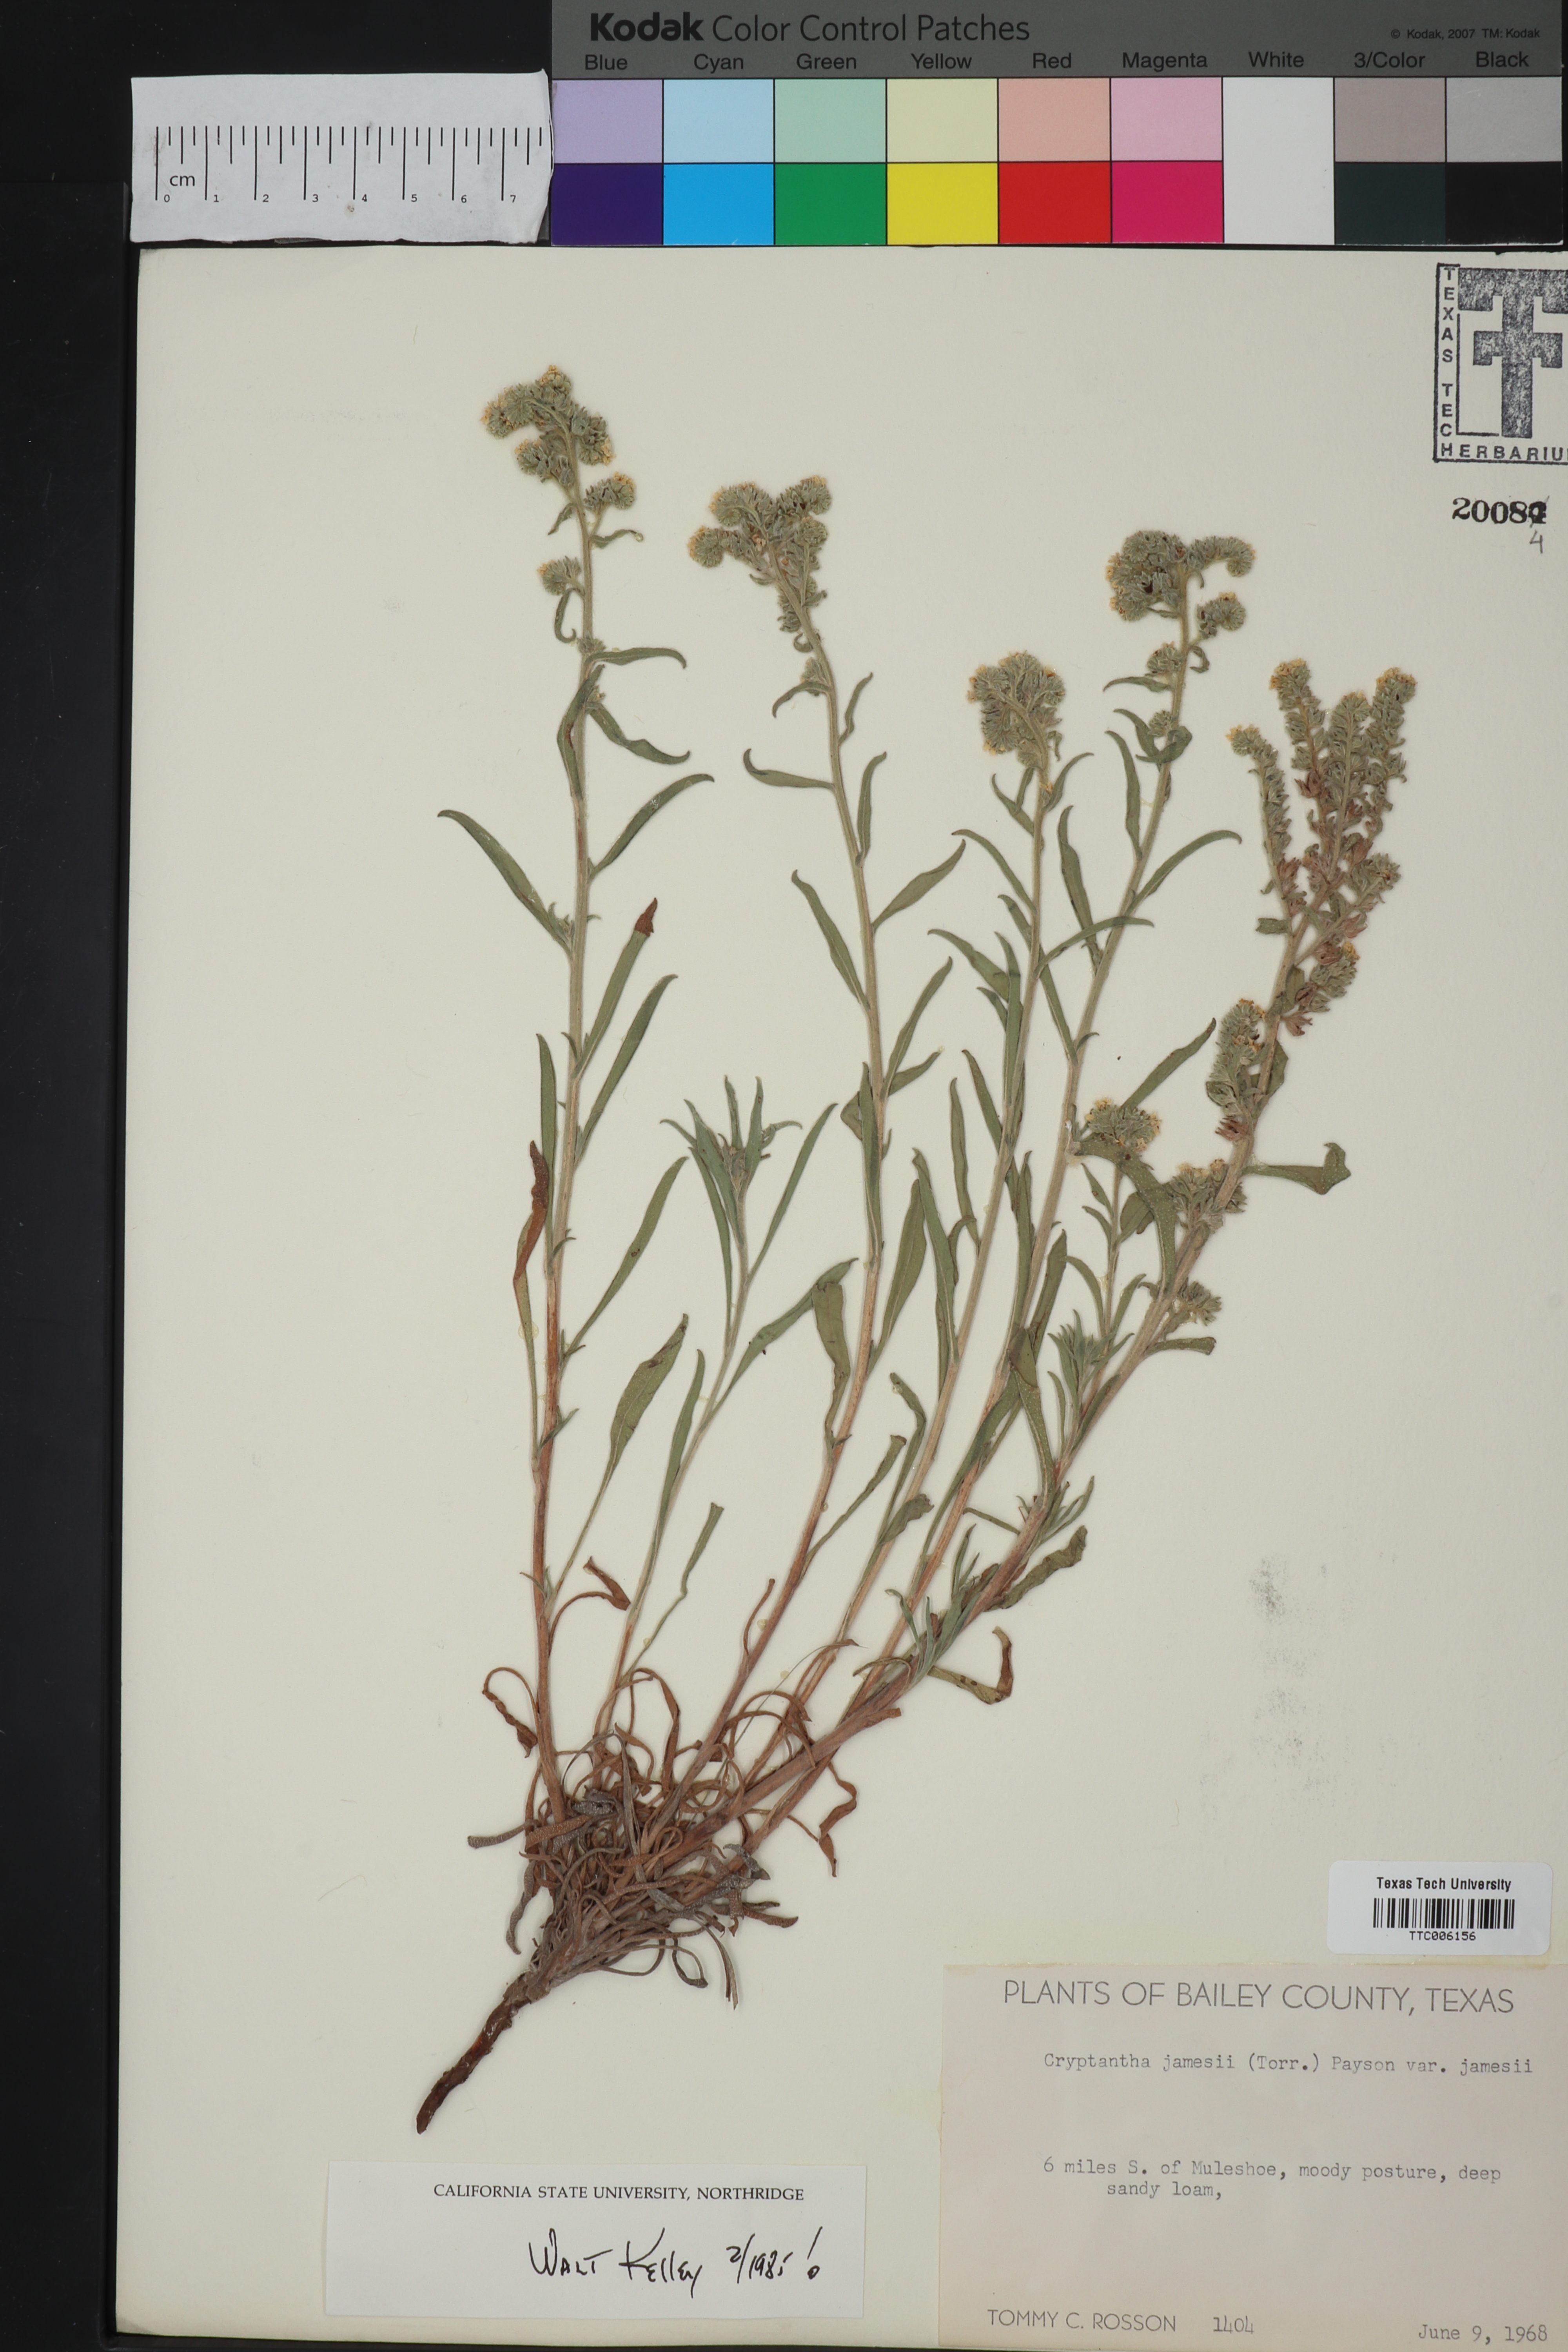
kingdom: Plantae
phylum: Tracheophyta
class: Magnoliopsida
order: Boraginales
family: Boraginaceae
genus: Oreocarya
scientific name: Oreocarya suffruticosa
